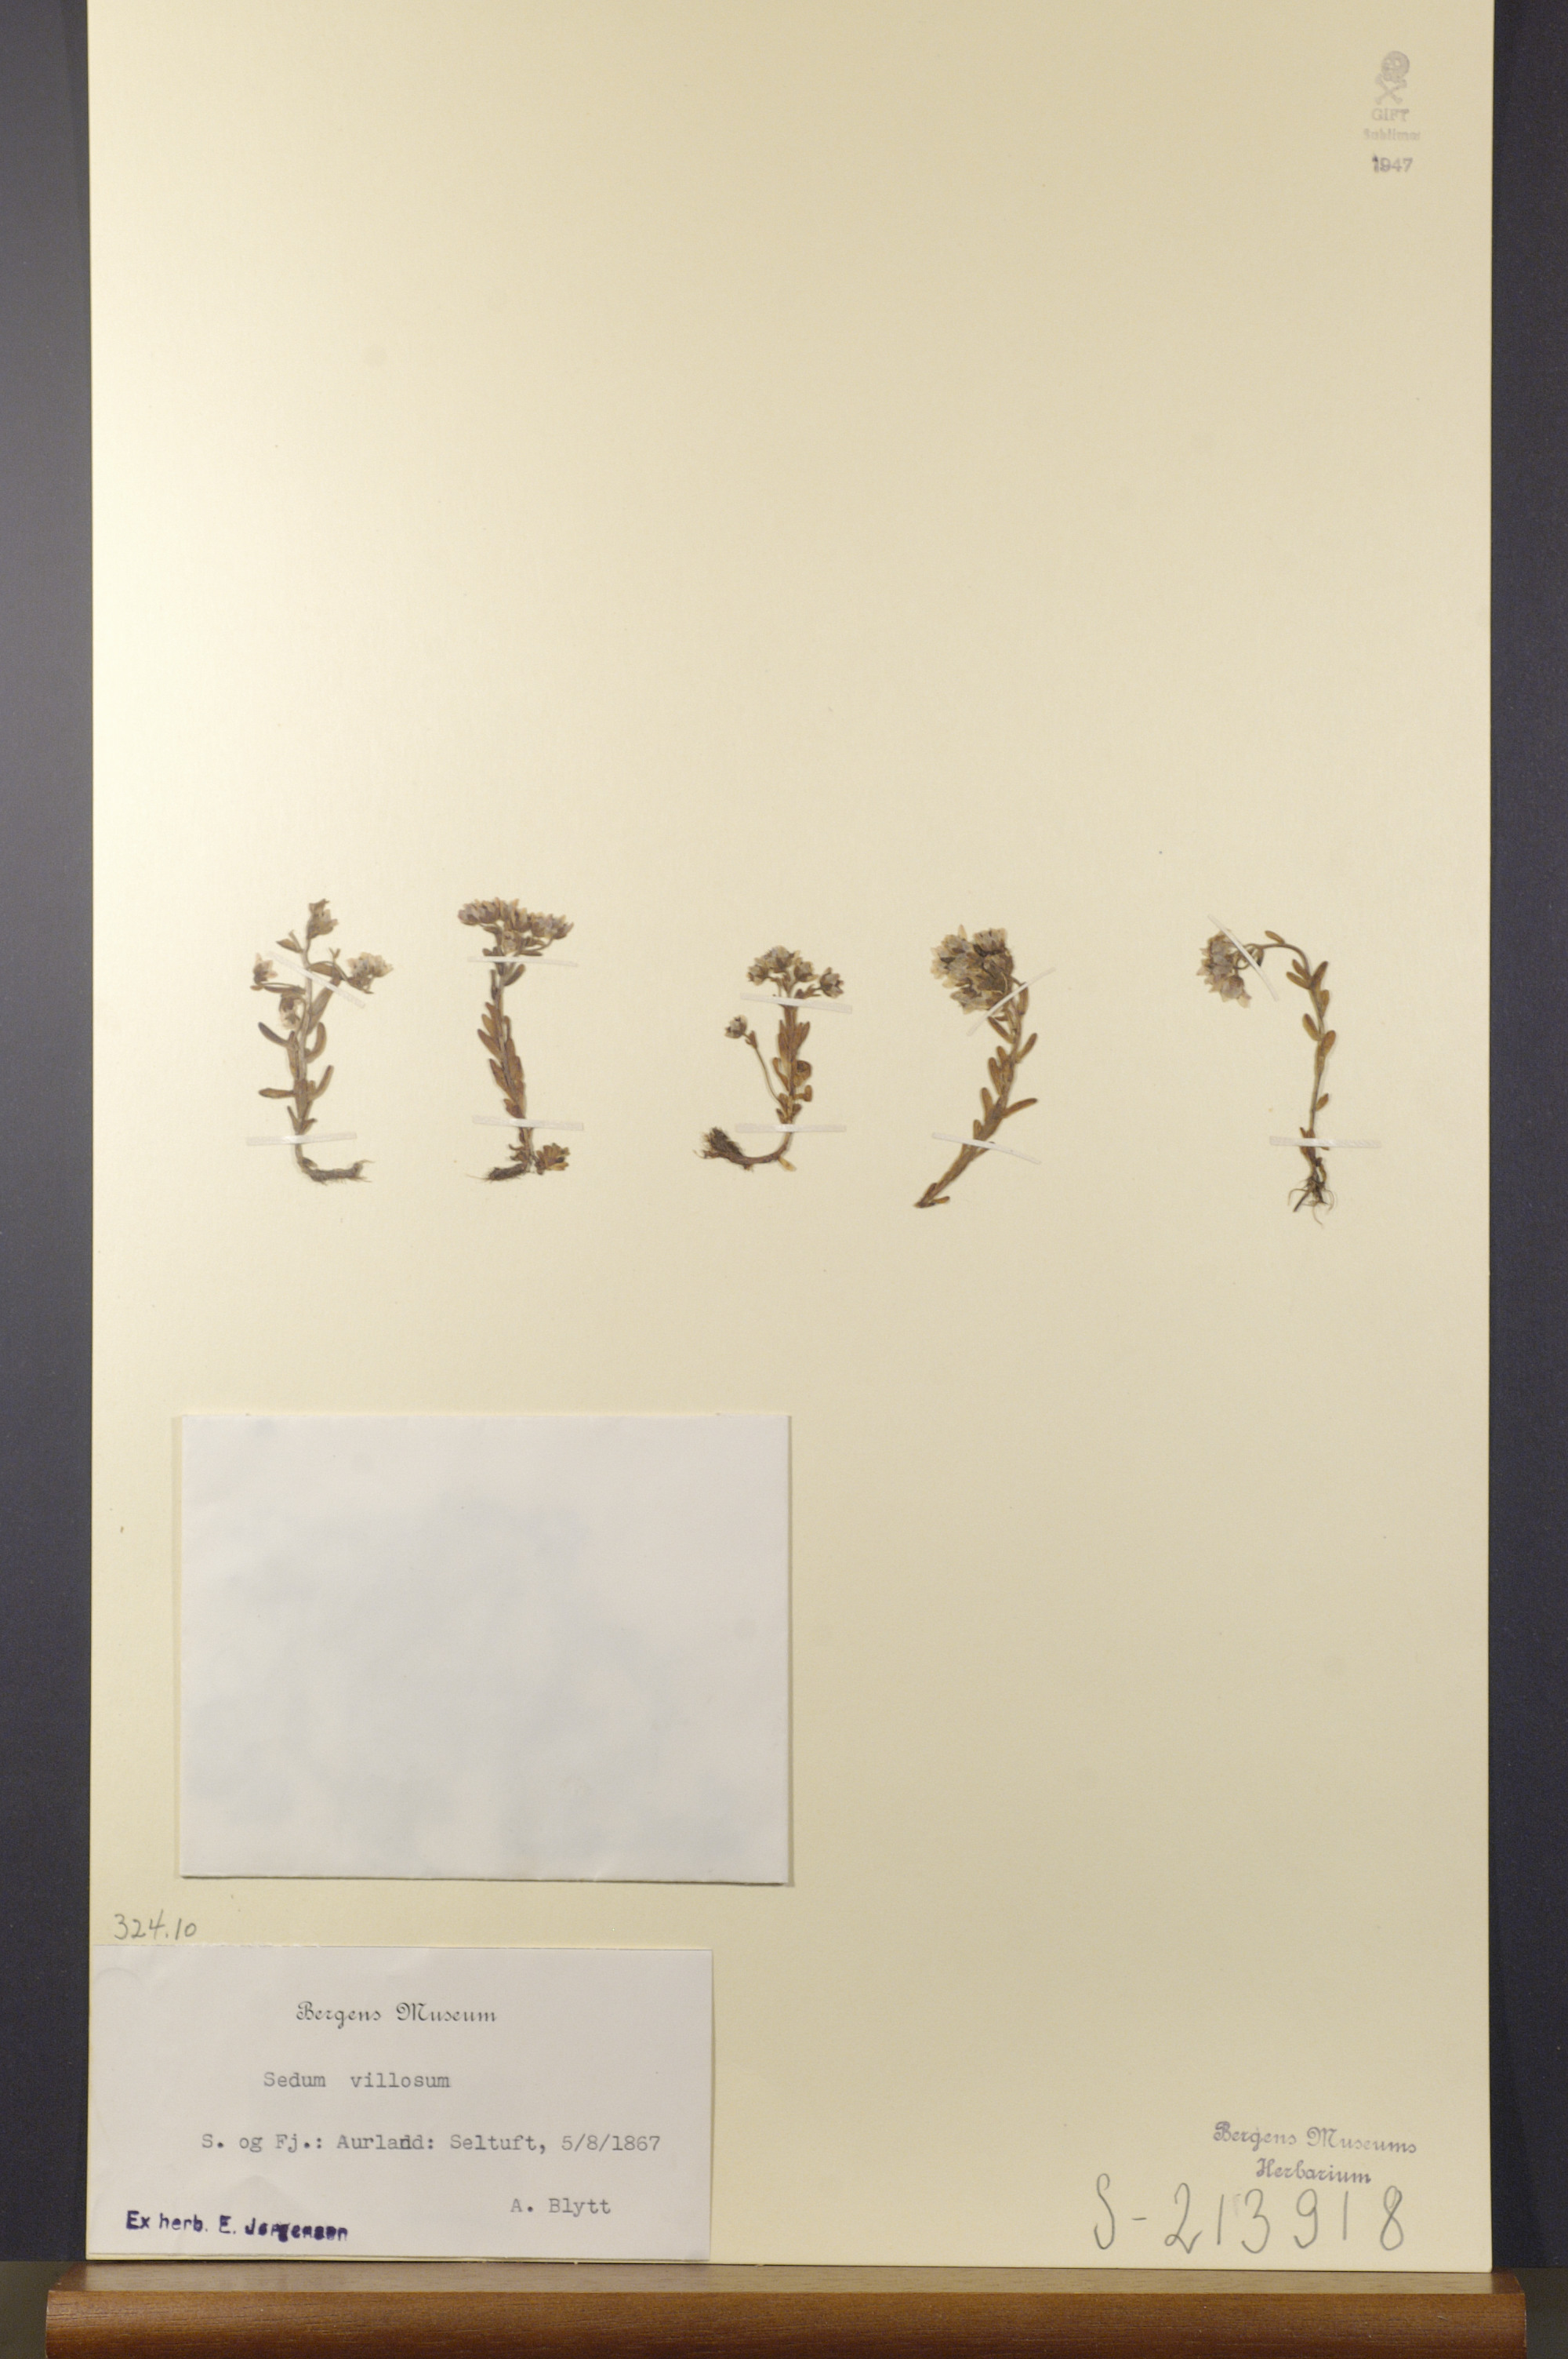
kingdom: Plantae
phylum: Tracheophyta
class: Magnoliopsida
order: Saxifragales
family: Crassulaceae
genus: Sedum
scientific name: Sedum villosum
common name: Hairy stonecrop
